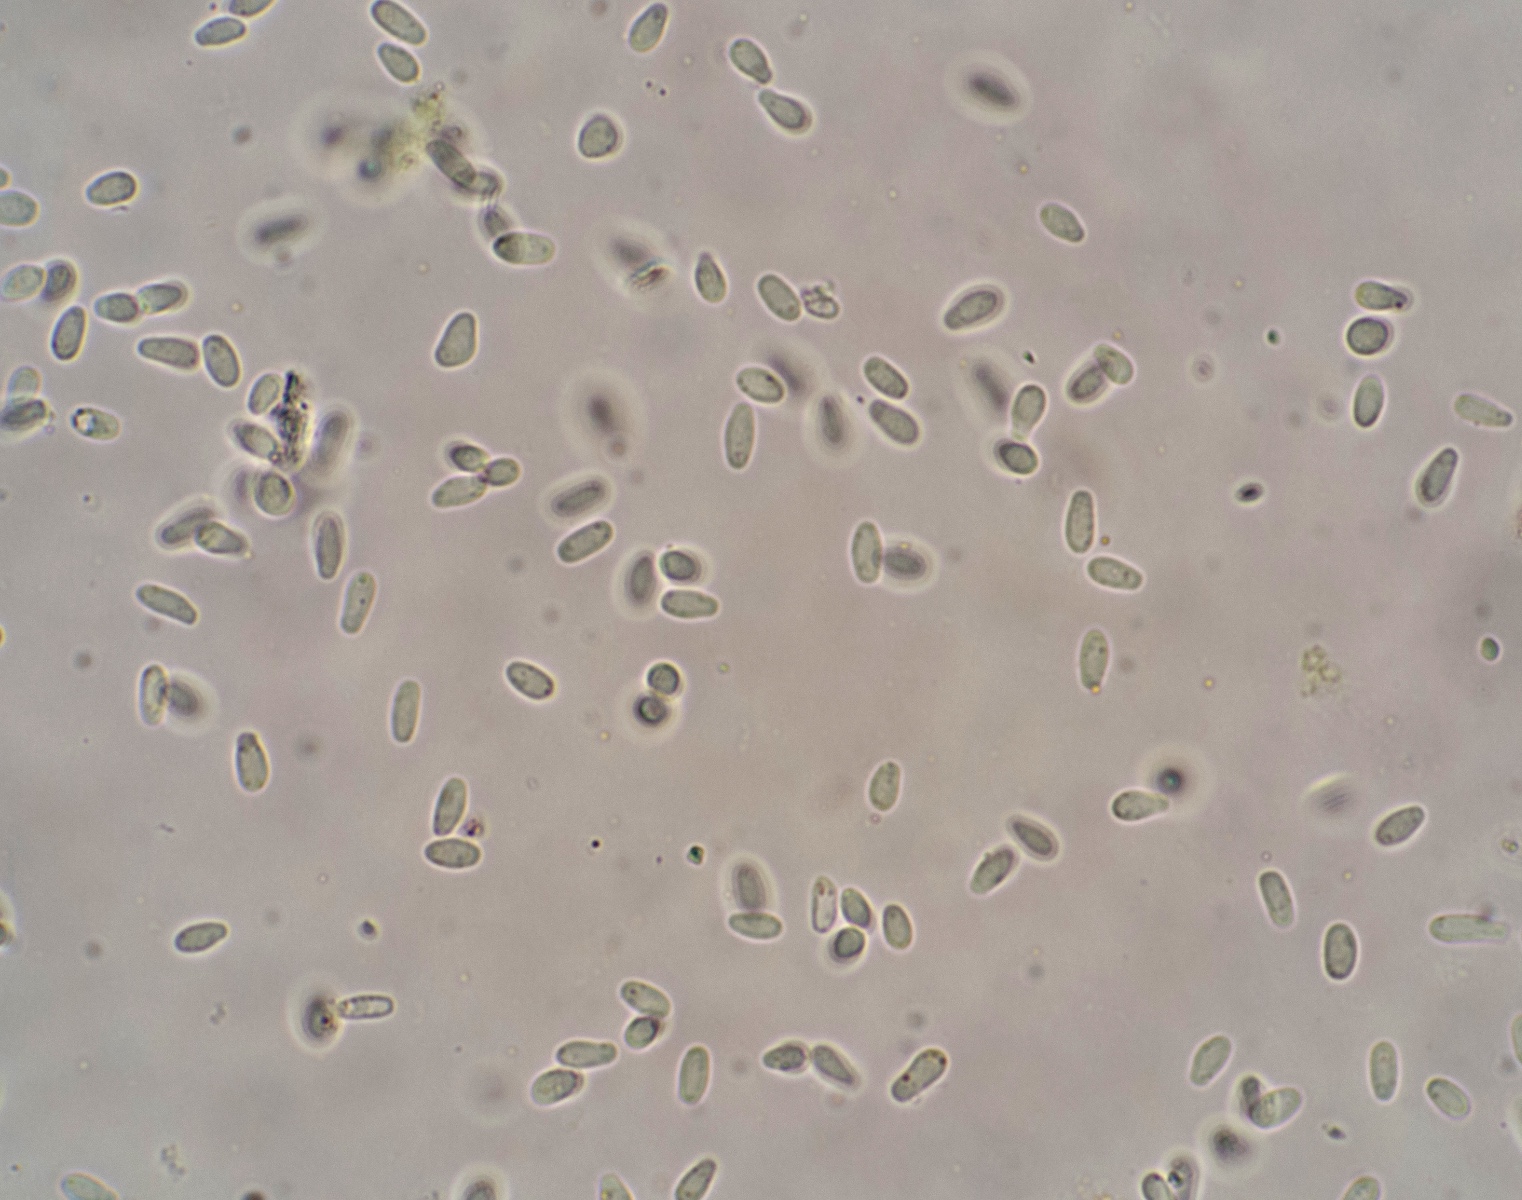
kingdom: Fungi
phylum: Basidiomycota
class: Pucciniomycetes
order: Pucciniales
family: Melampsoraceae
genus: Melampsora
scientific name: Melampsora populnea
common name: poppel-skorperust
